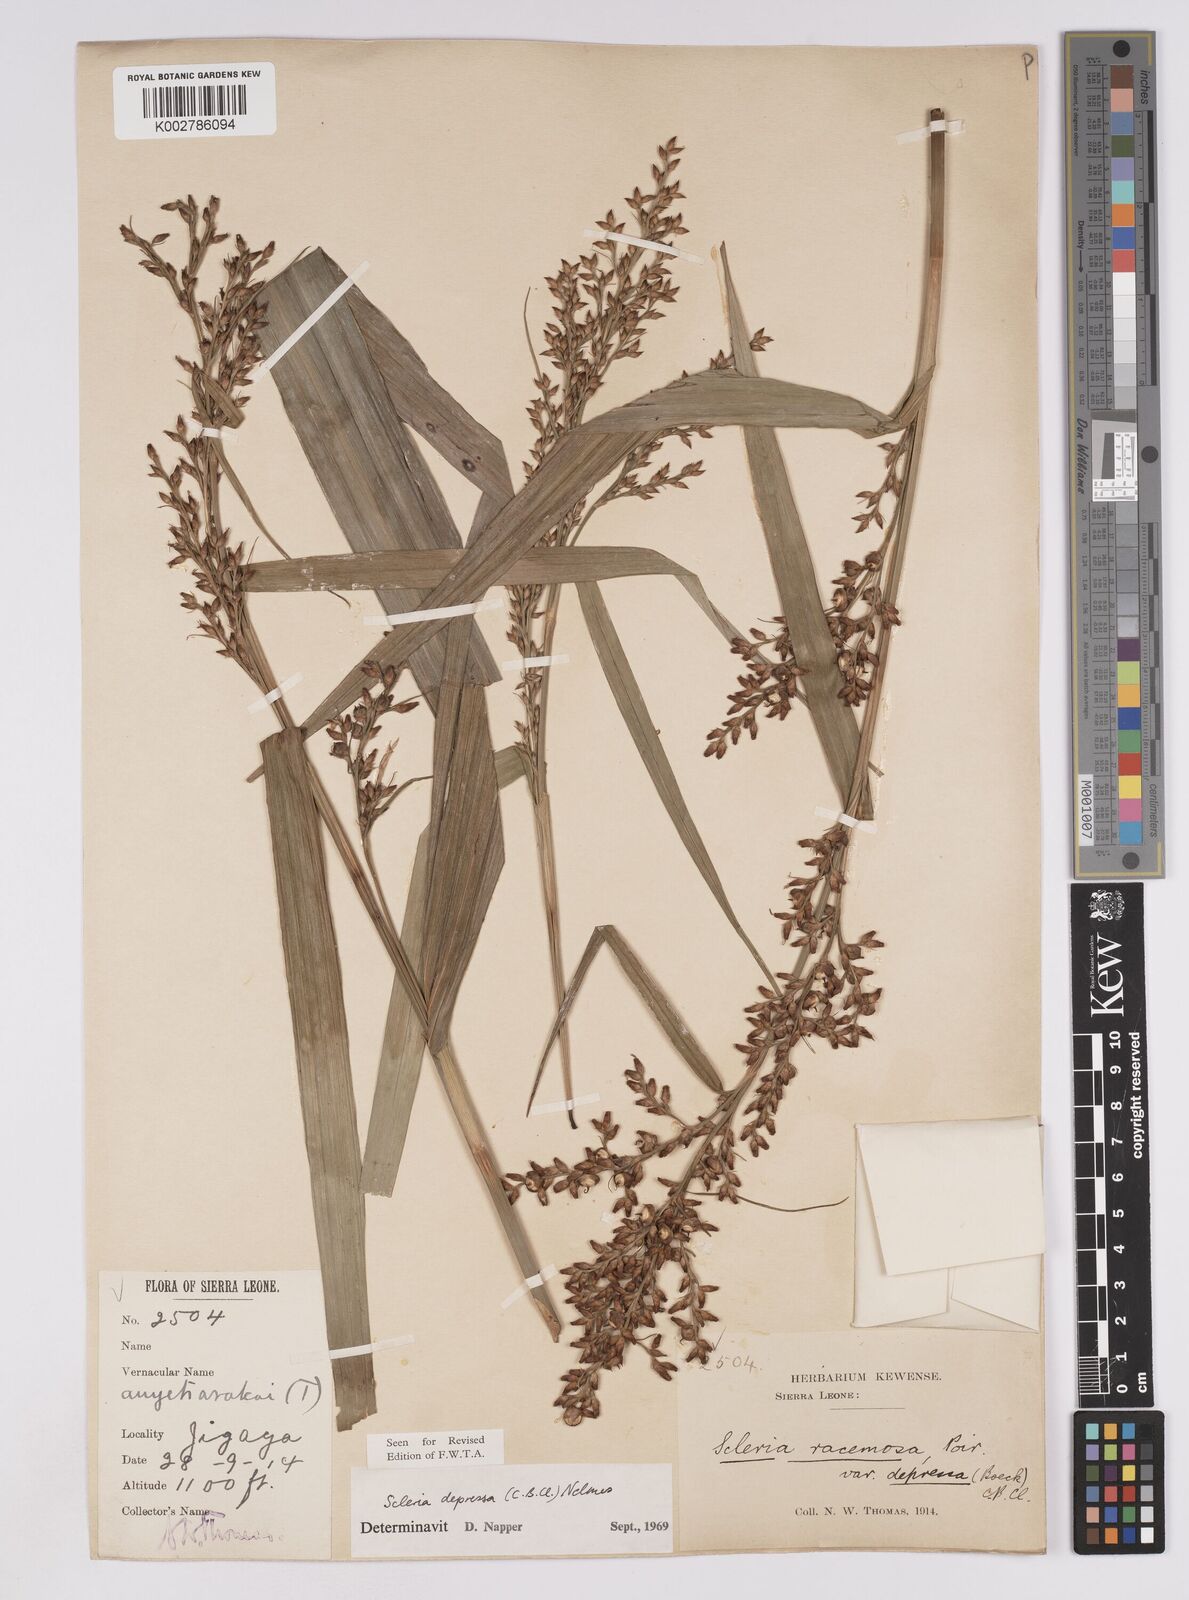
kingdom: Plantae
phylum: Tracheophyta
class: Liliopsida
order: Poales
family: Cyperaceae
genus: Scleria
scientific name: Scleria depressa
